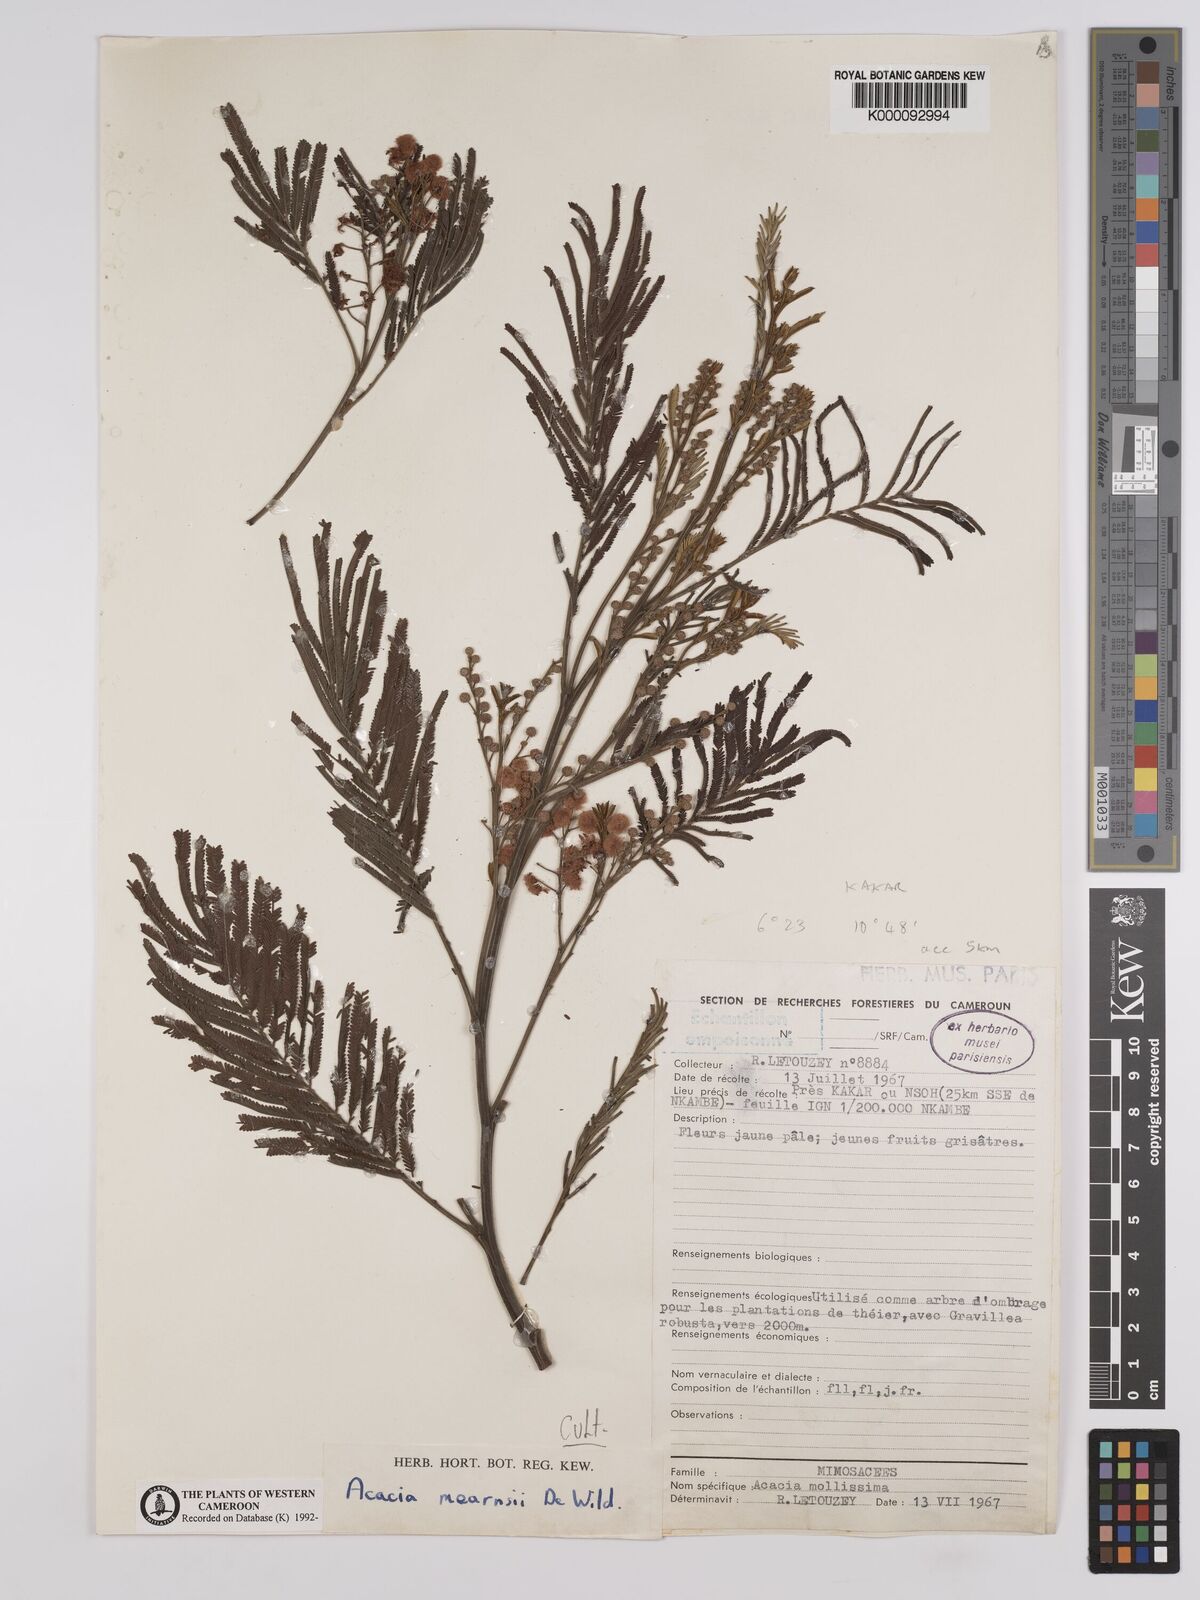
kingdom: Plantae
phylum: Tracheophyta
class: Magnoliopsida
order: Fabales
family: Fabaceae
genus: Acacia
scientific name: Acacia mearnsii
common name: Black wattle
